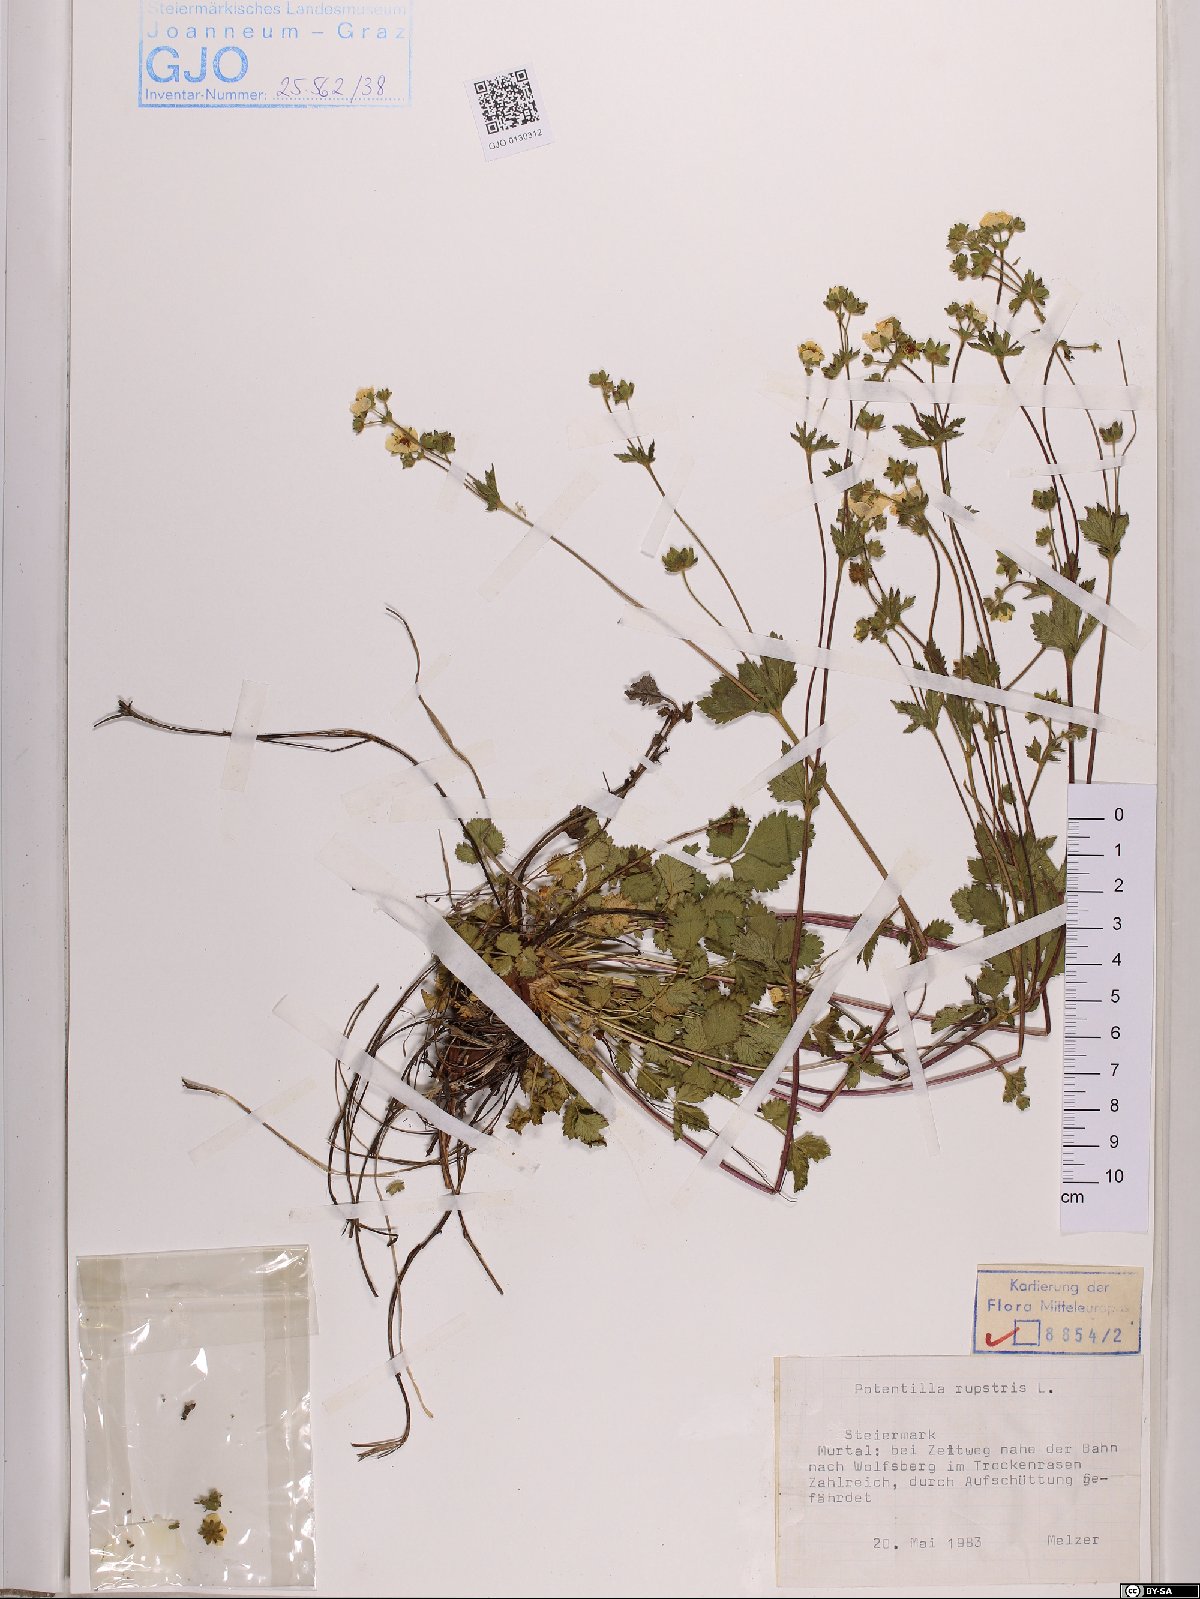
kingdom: Plantae
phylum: Tracheophyta
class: Magnoliopsida
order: Rosales
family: Rosaceae
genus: Drymocallis
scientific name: Drymocallis rupestris
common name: Rock cinquefoil
